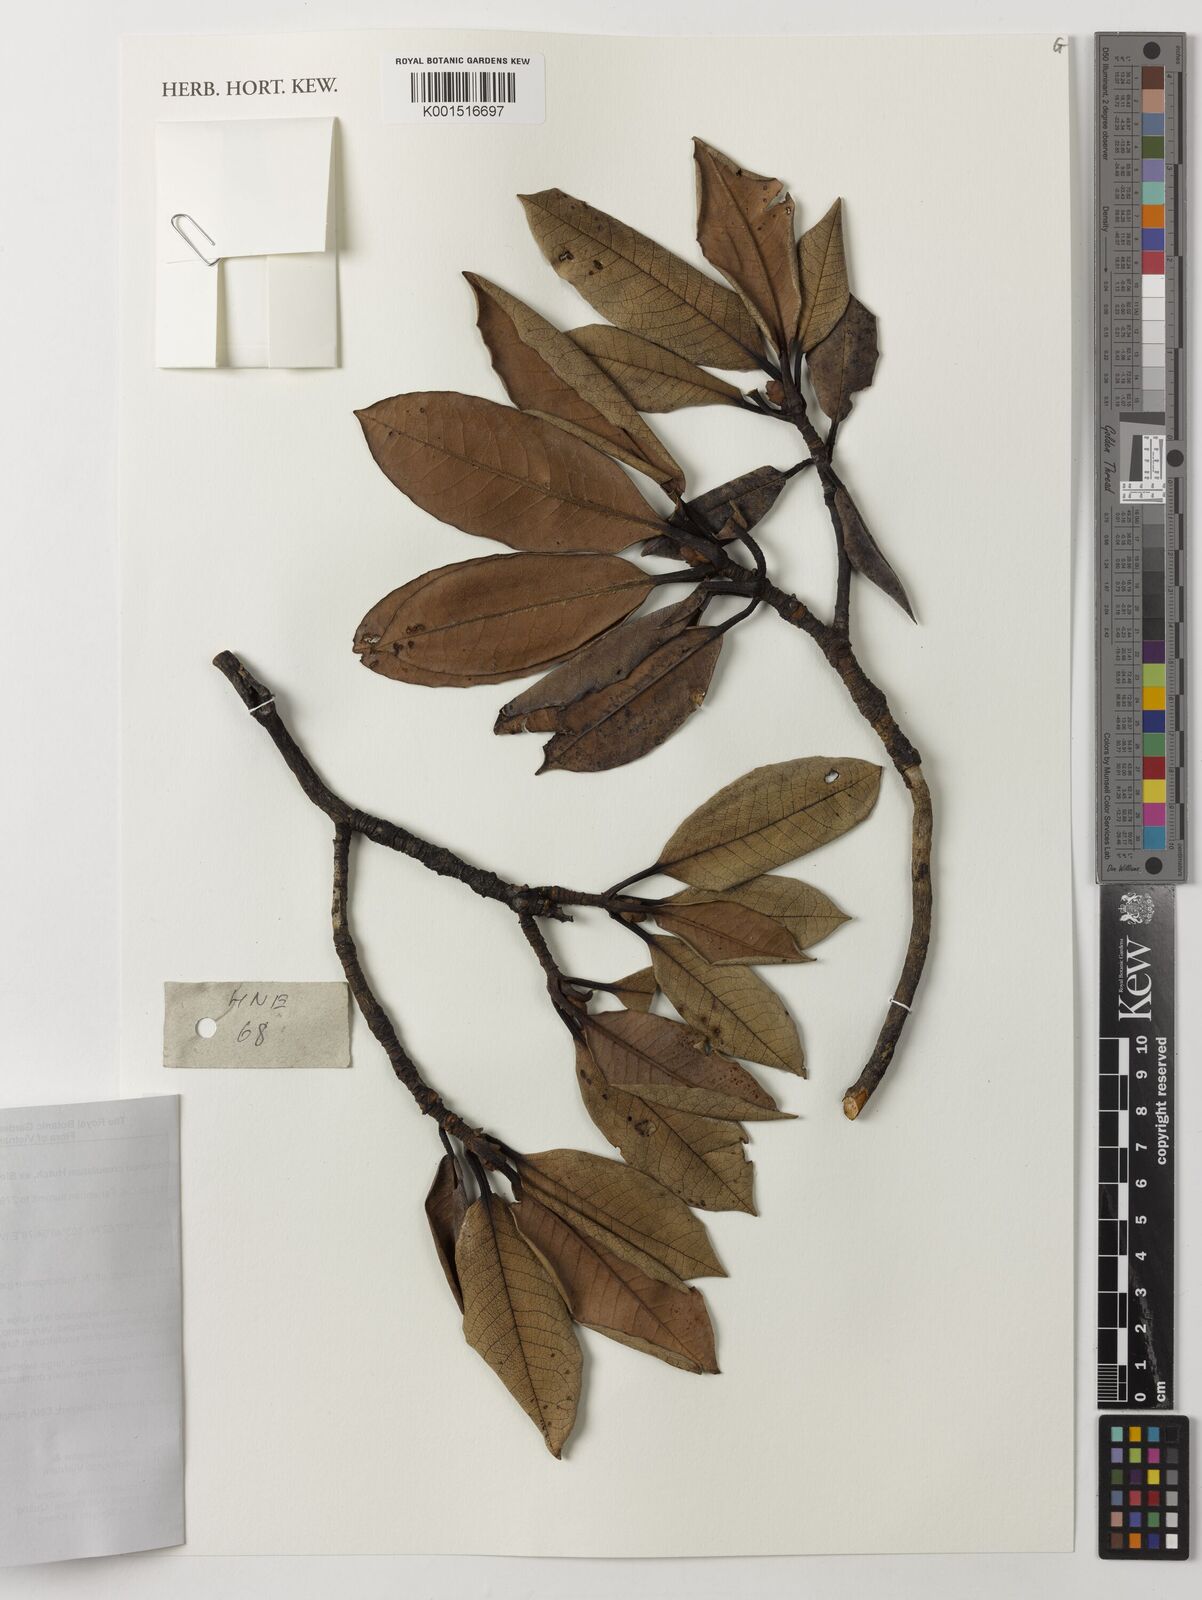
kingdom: Plantae
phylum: Tracheophyta
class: Magnoliopsida
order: Ericales
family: Ericaceae
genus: Rhododendron
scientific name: Rhododendron crenulatum
